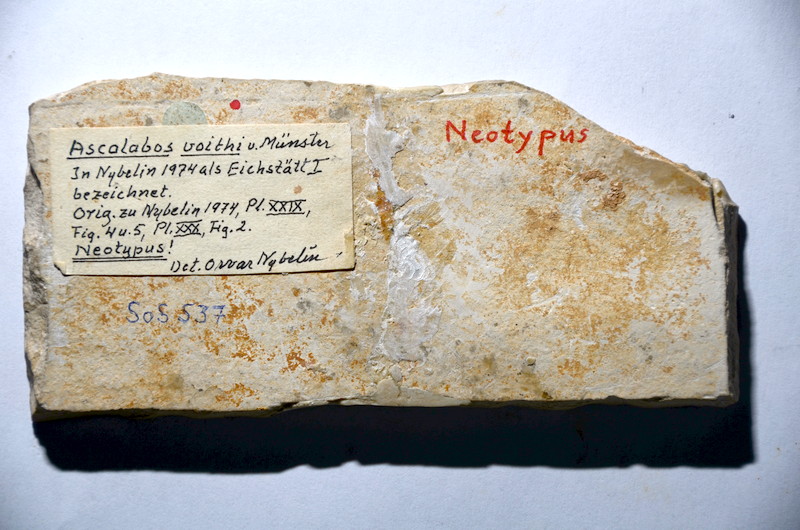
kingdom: Animalia
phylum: Chordata
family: Ascalaboidae
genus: Ascalabos
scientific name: Ascalabos voithii
